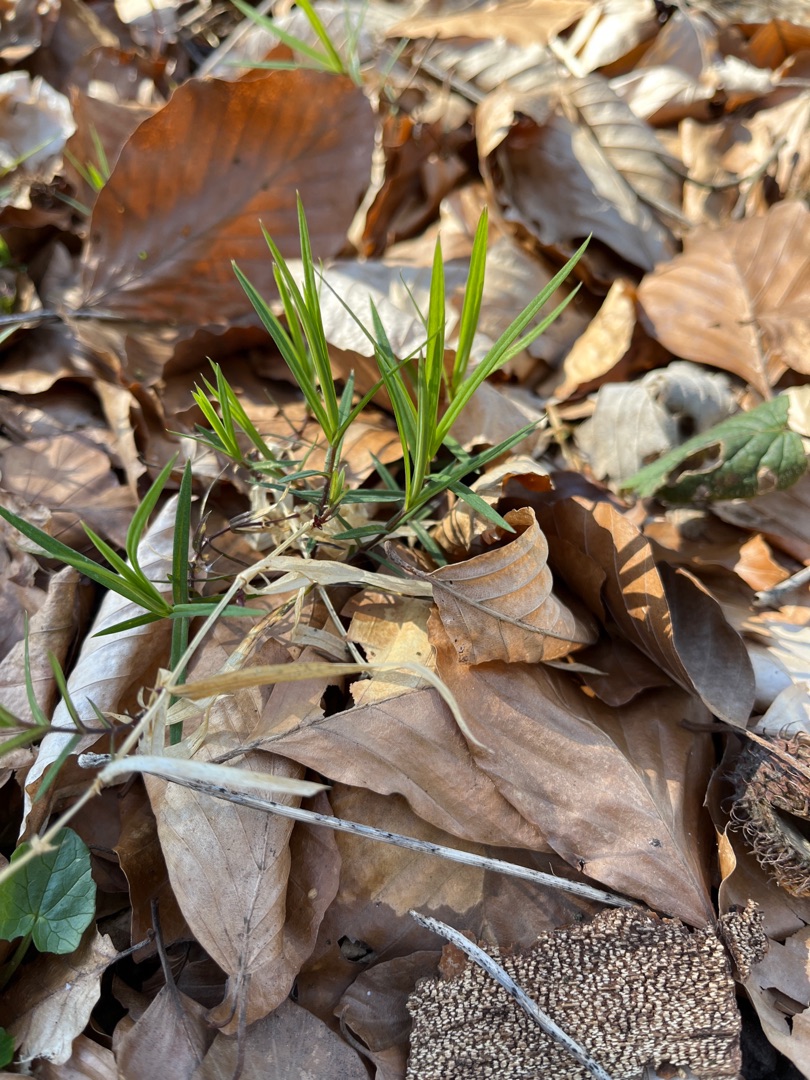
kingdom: Plantae
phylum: Tracheophyta
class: Magnoliopsida
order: Caryophyllales
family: Caryophyllaceae
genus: Rabelera
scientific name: Rabelera holostea
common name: Stor fladstjerne
